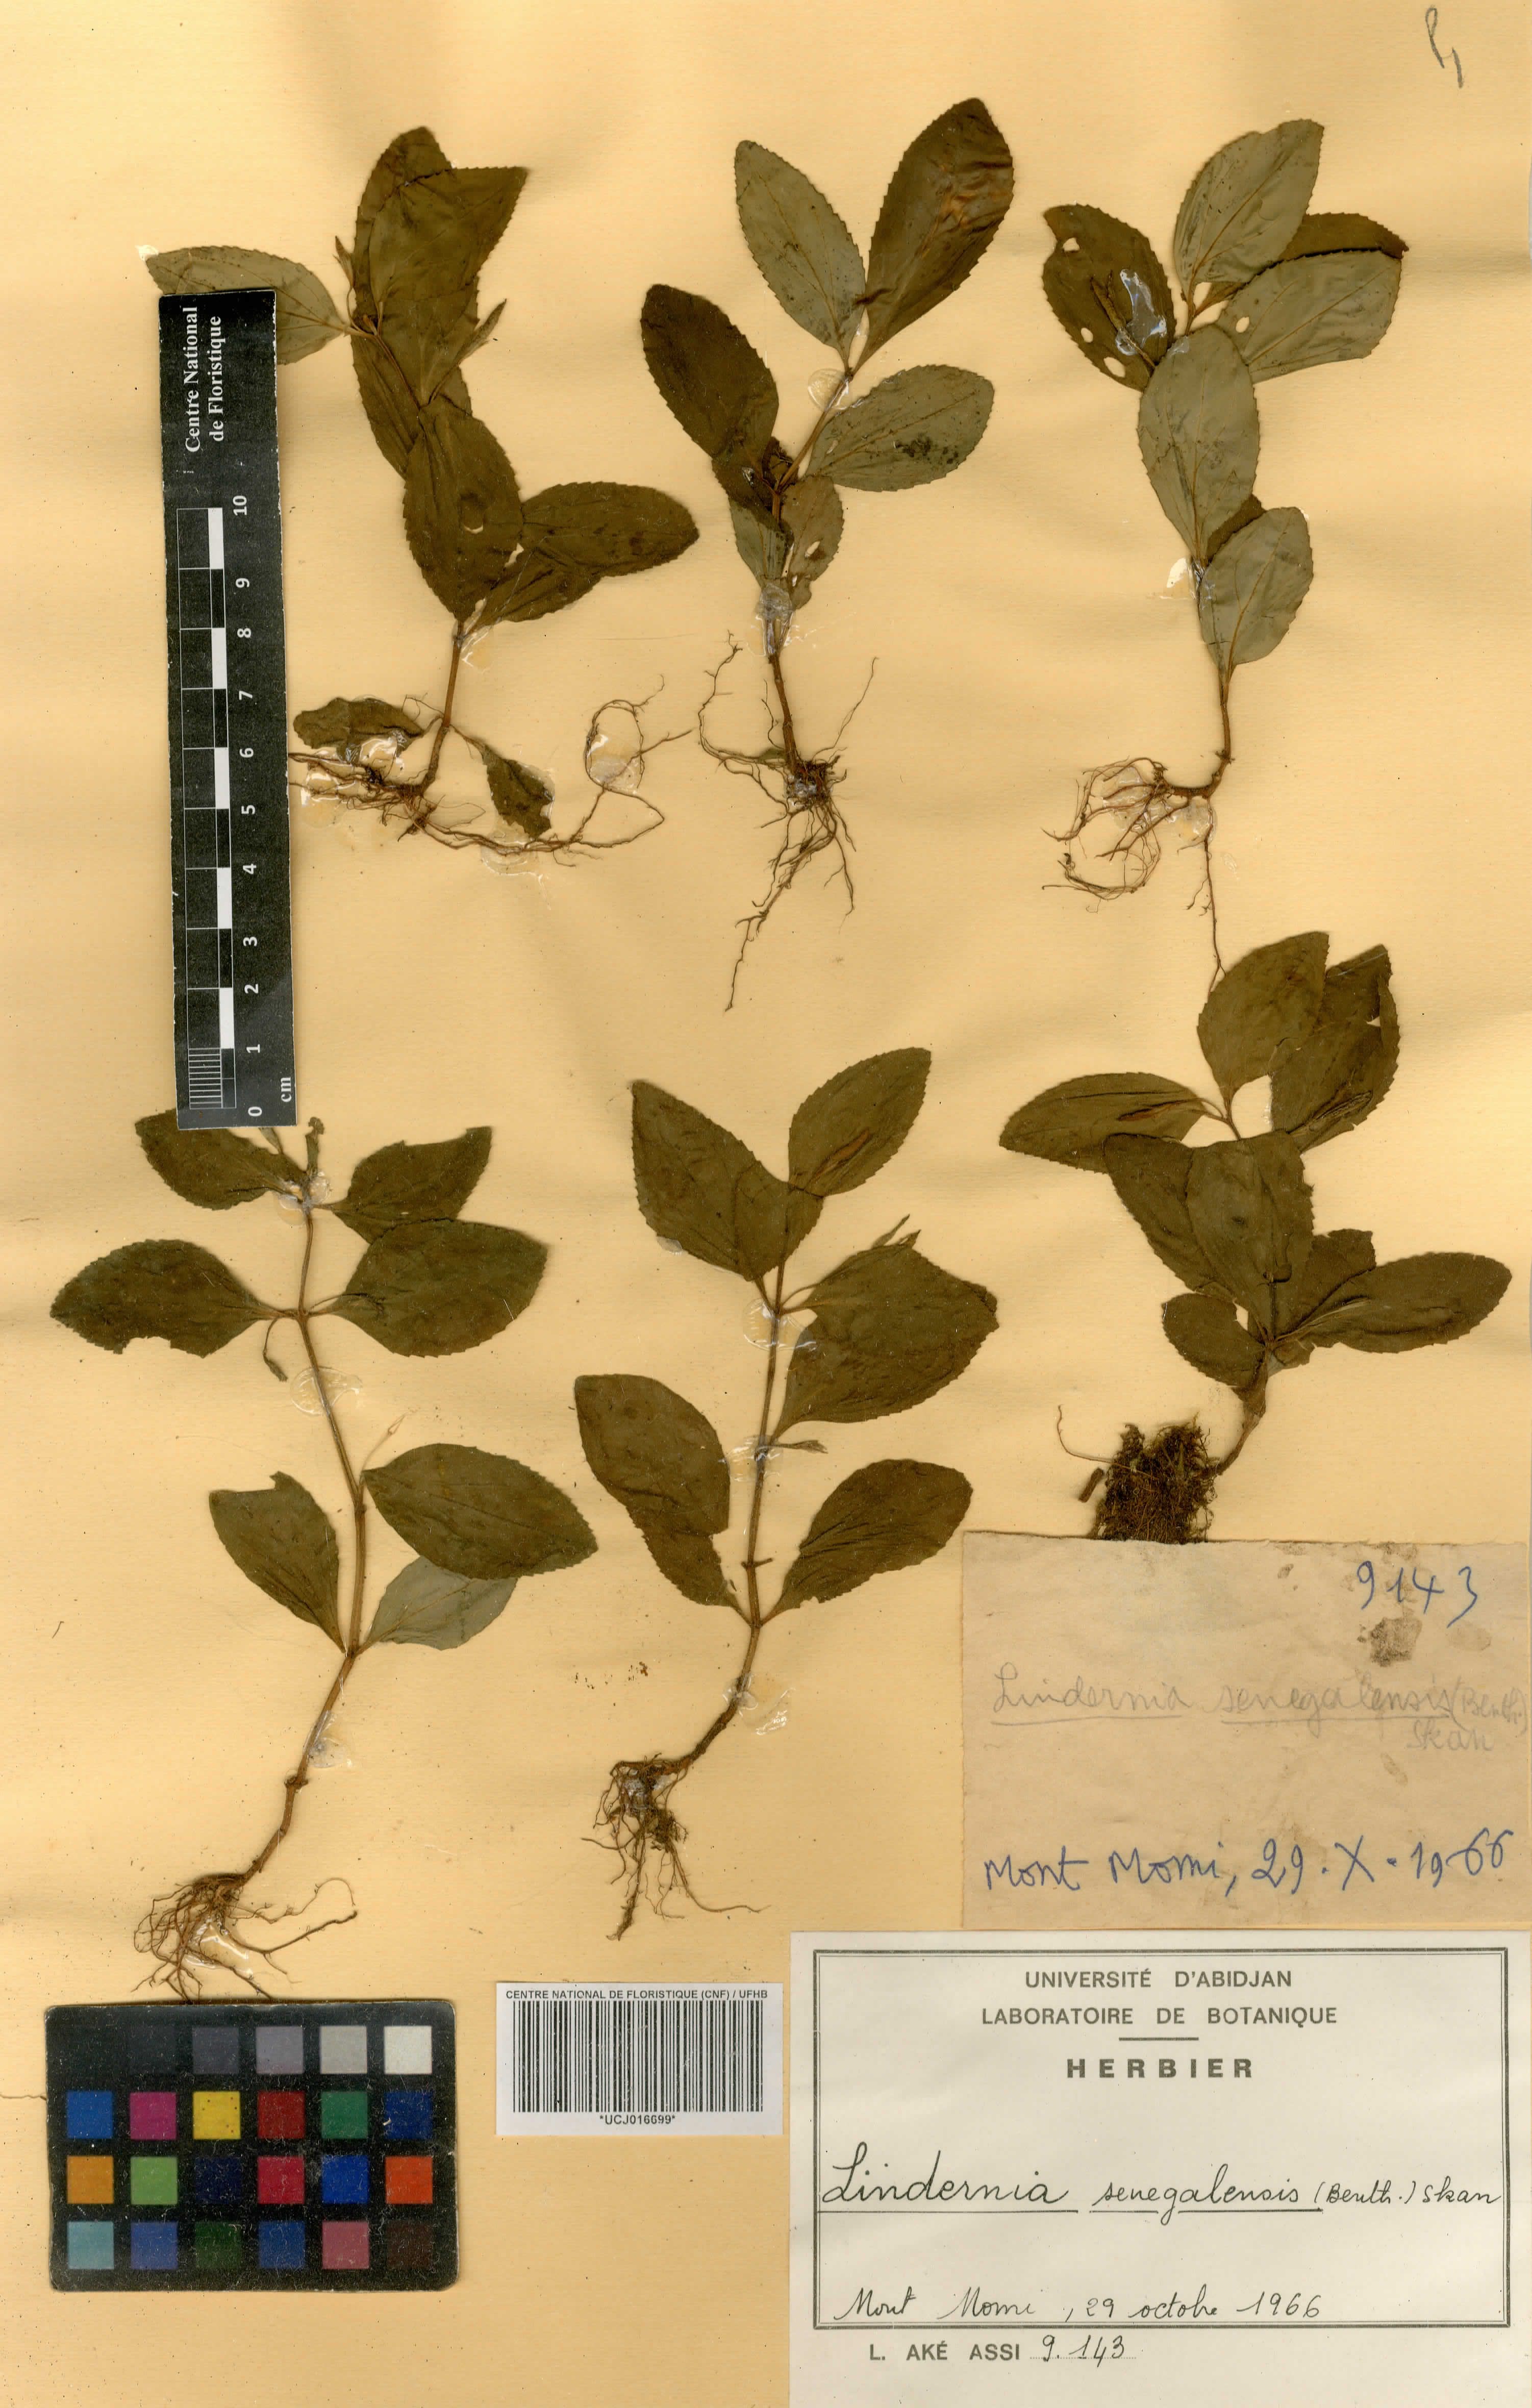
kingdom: Plantae
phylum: Tracheophyta
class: Magnoliopsida
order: Lamiales
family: Linderniaceae
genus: Vandellia
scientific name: Vandellia senegalensis
